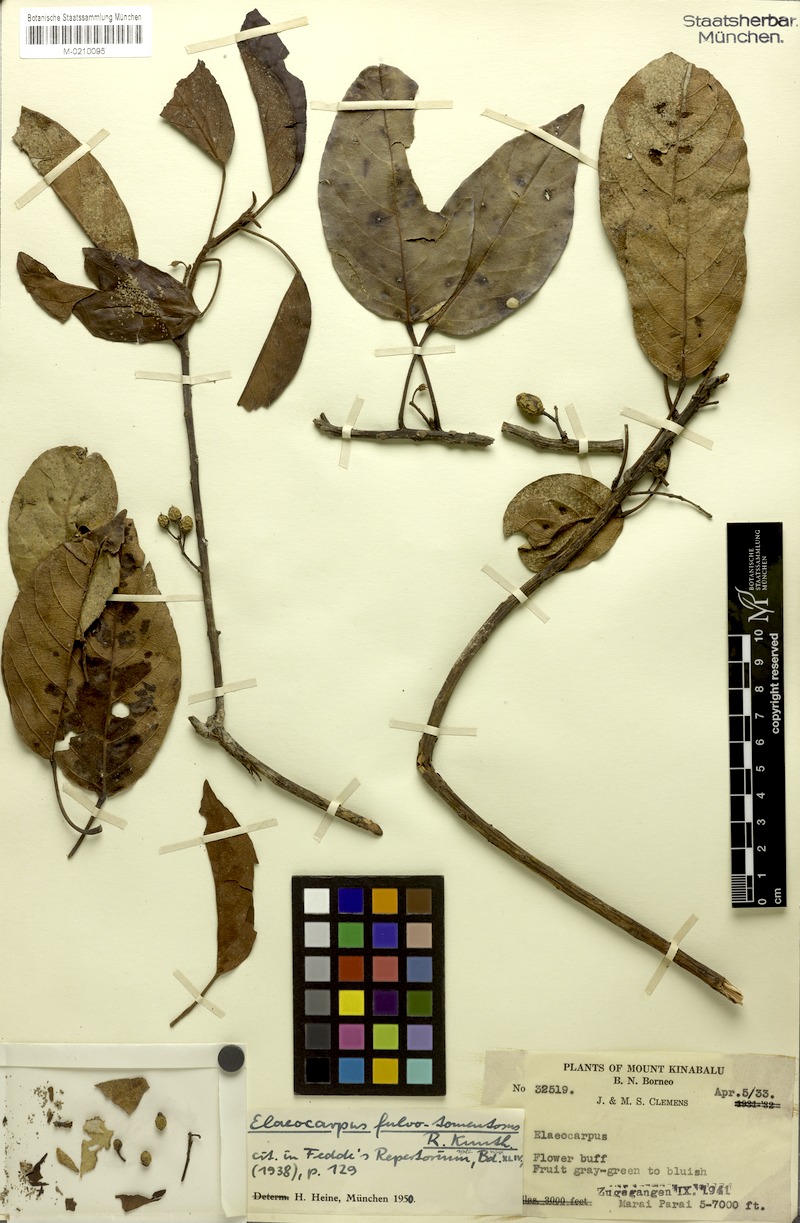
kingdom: Plantae
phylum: Tracheophyta
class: Magnoliopsida
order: Oxalidales
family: Elaeocarpaceae
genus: Elaeocarpus
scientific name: Elaeocarpus ferrugineus
